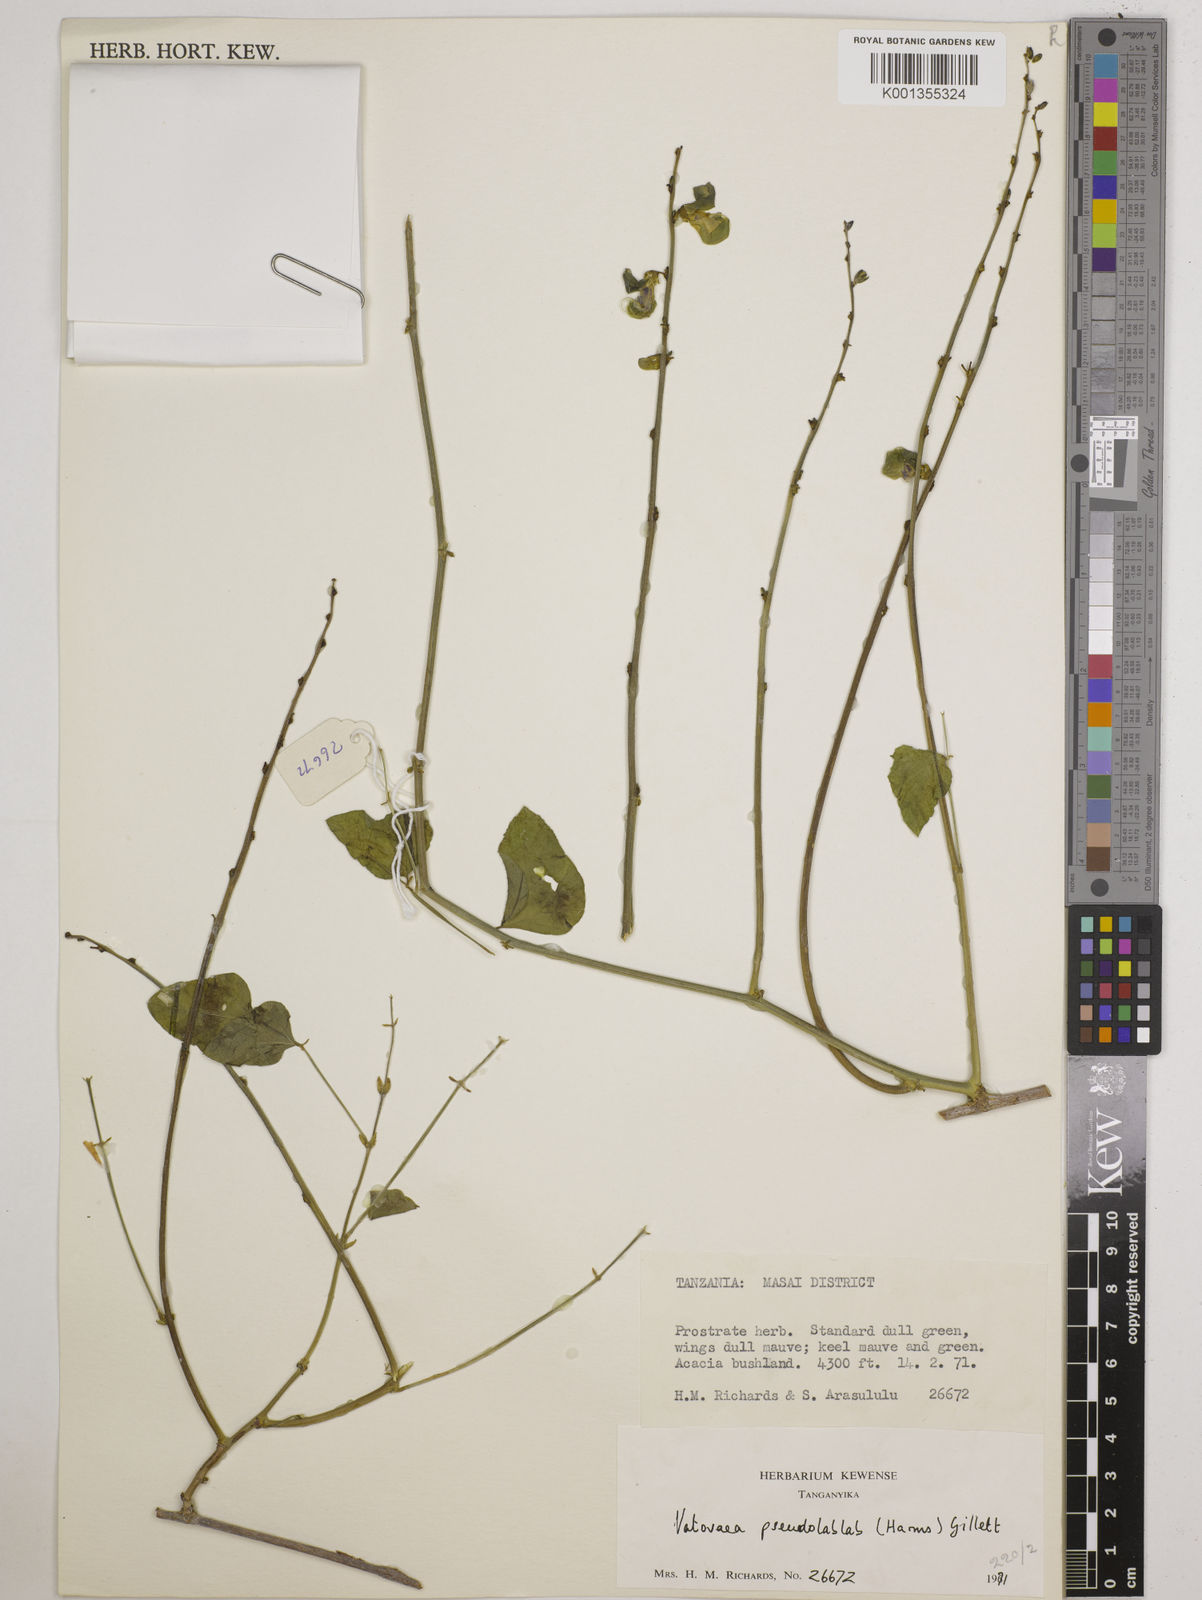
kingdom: Plantae
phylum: Tracheophyta
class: Magnoliopsida
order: Fabales
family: Fabaceae
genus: Vatovaea
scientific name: Vatovaea pseudolablab
